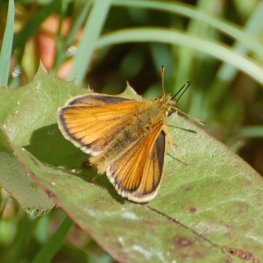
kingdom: Animalia
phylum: Arthropoda
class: Insecta
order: Lepidoptera
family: Hesperiidae
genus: Thymelicus
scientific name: Thymelicus lineola
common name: European Skipper
